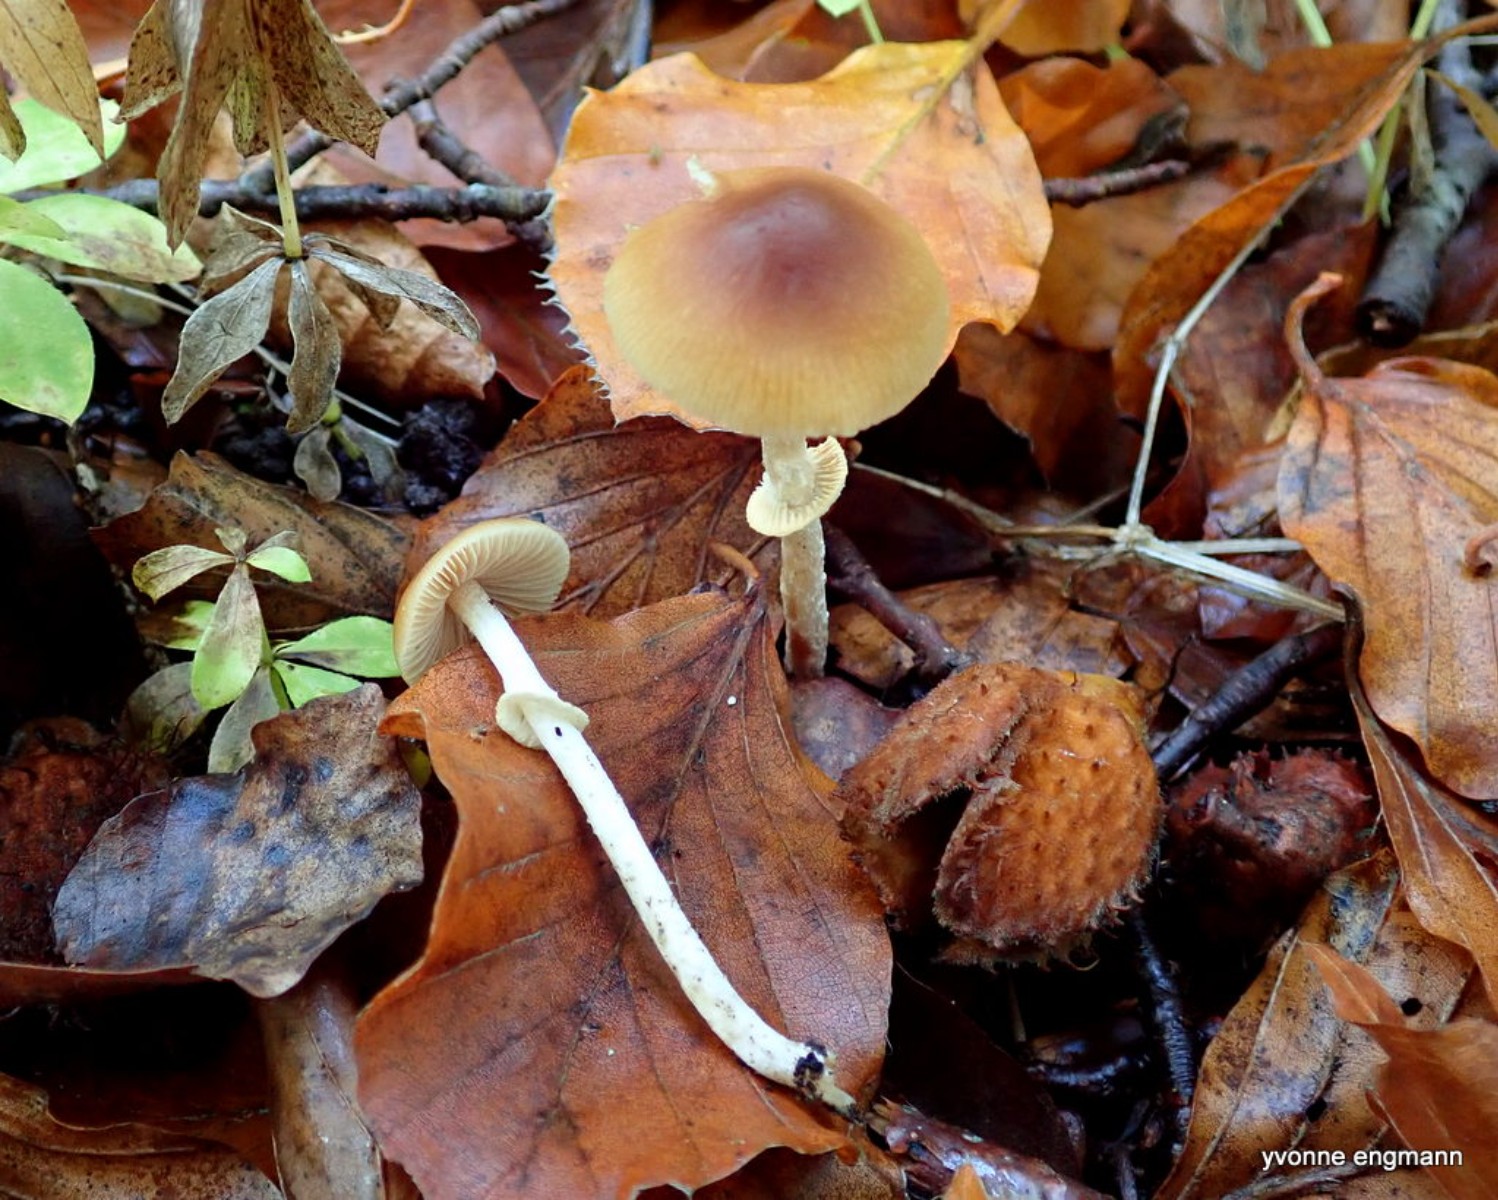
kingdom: Fungi
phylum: Basidiomycota
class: Agaricomycetes
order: Agaricales
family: Bolbitiaceae
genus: Conocybe
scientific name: Conocybe arrhenii
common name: ring-dansehat
